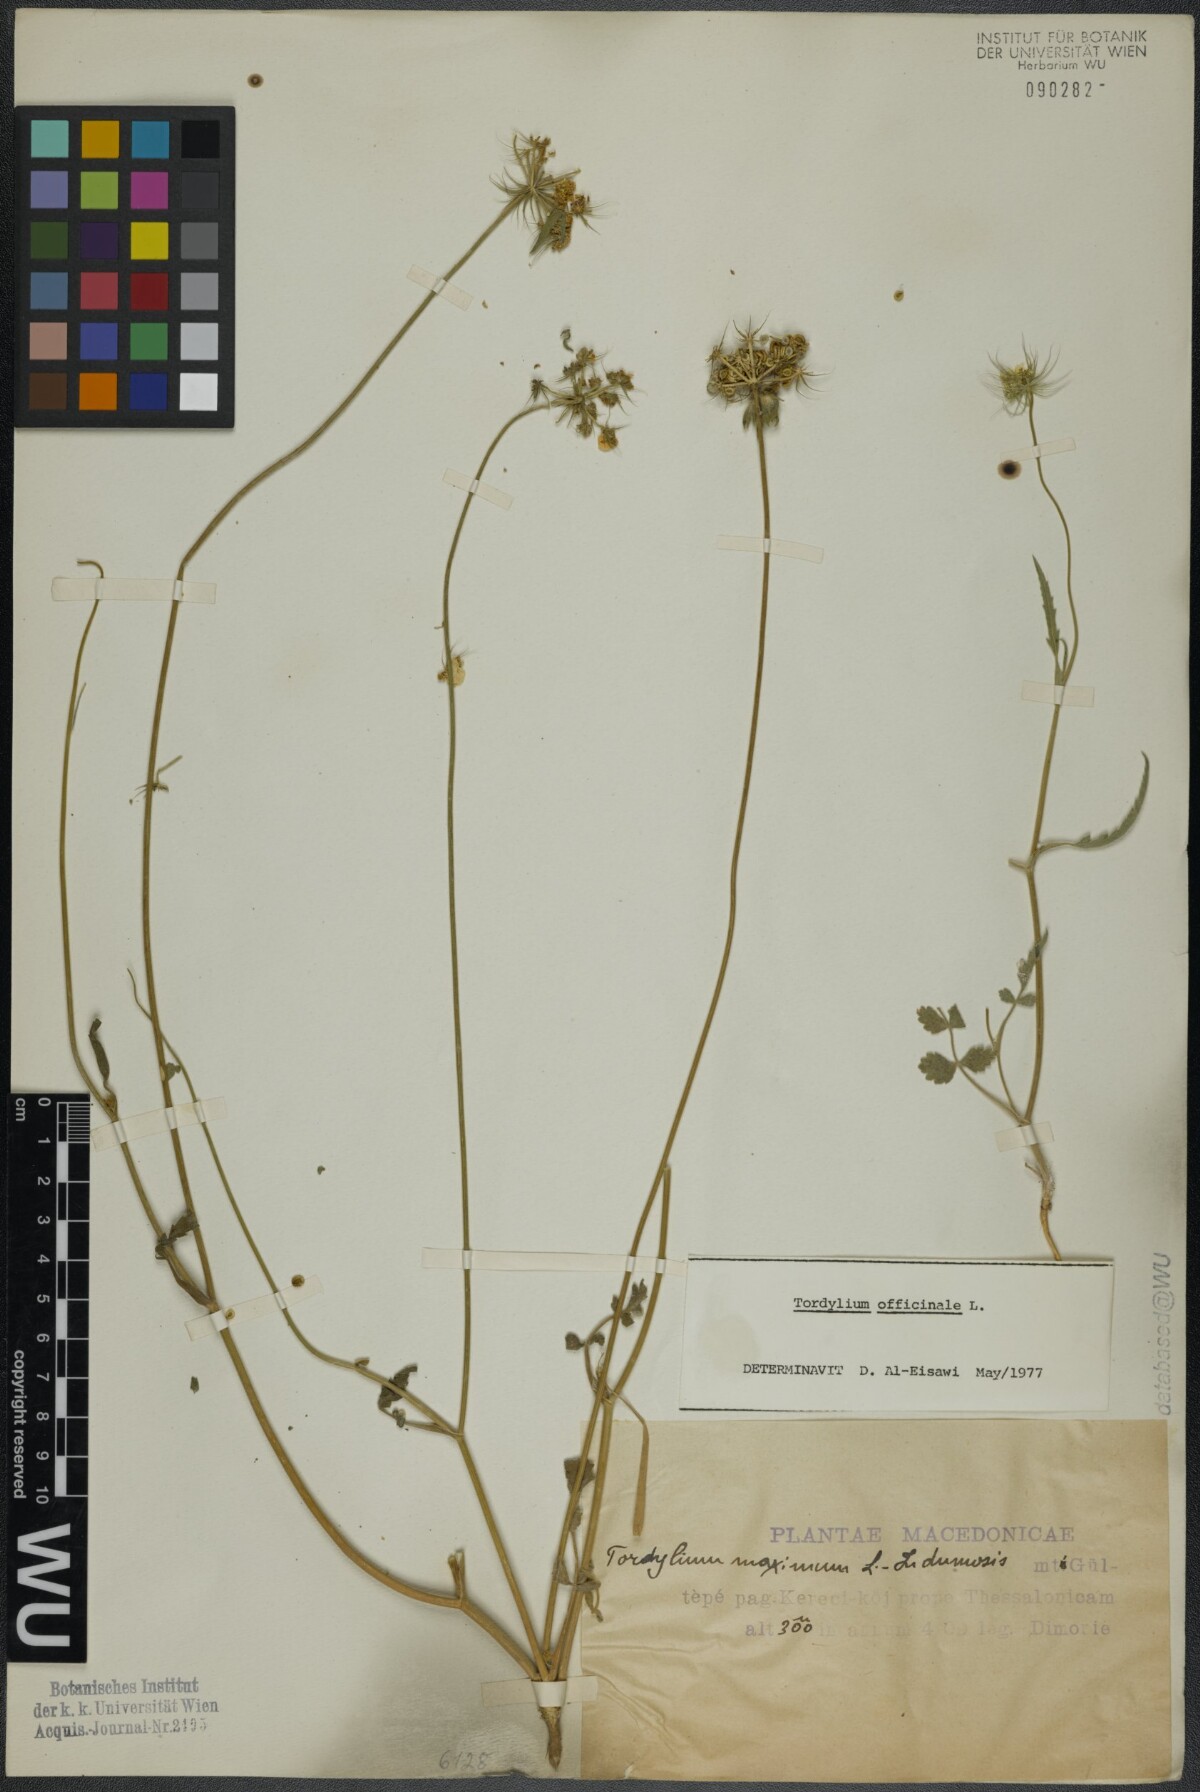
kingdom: Plantae
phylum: Tracheophyta
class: Magnoliopsida
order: Apiales
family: Apiaceae
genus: Tordylium
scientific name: Tordylium officinale
